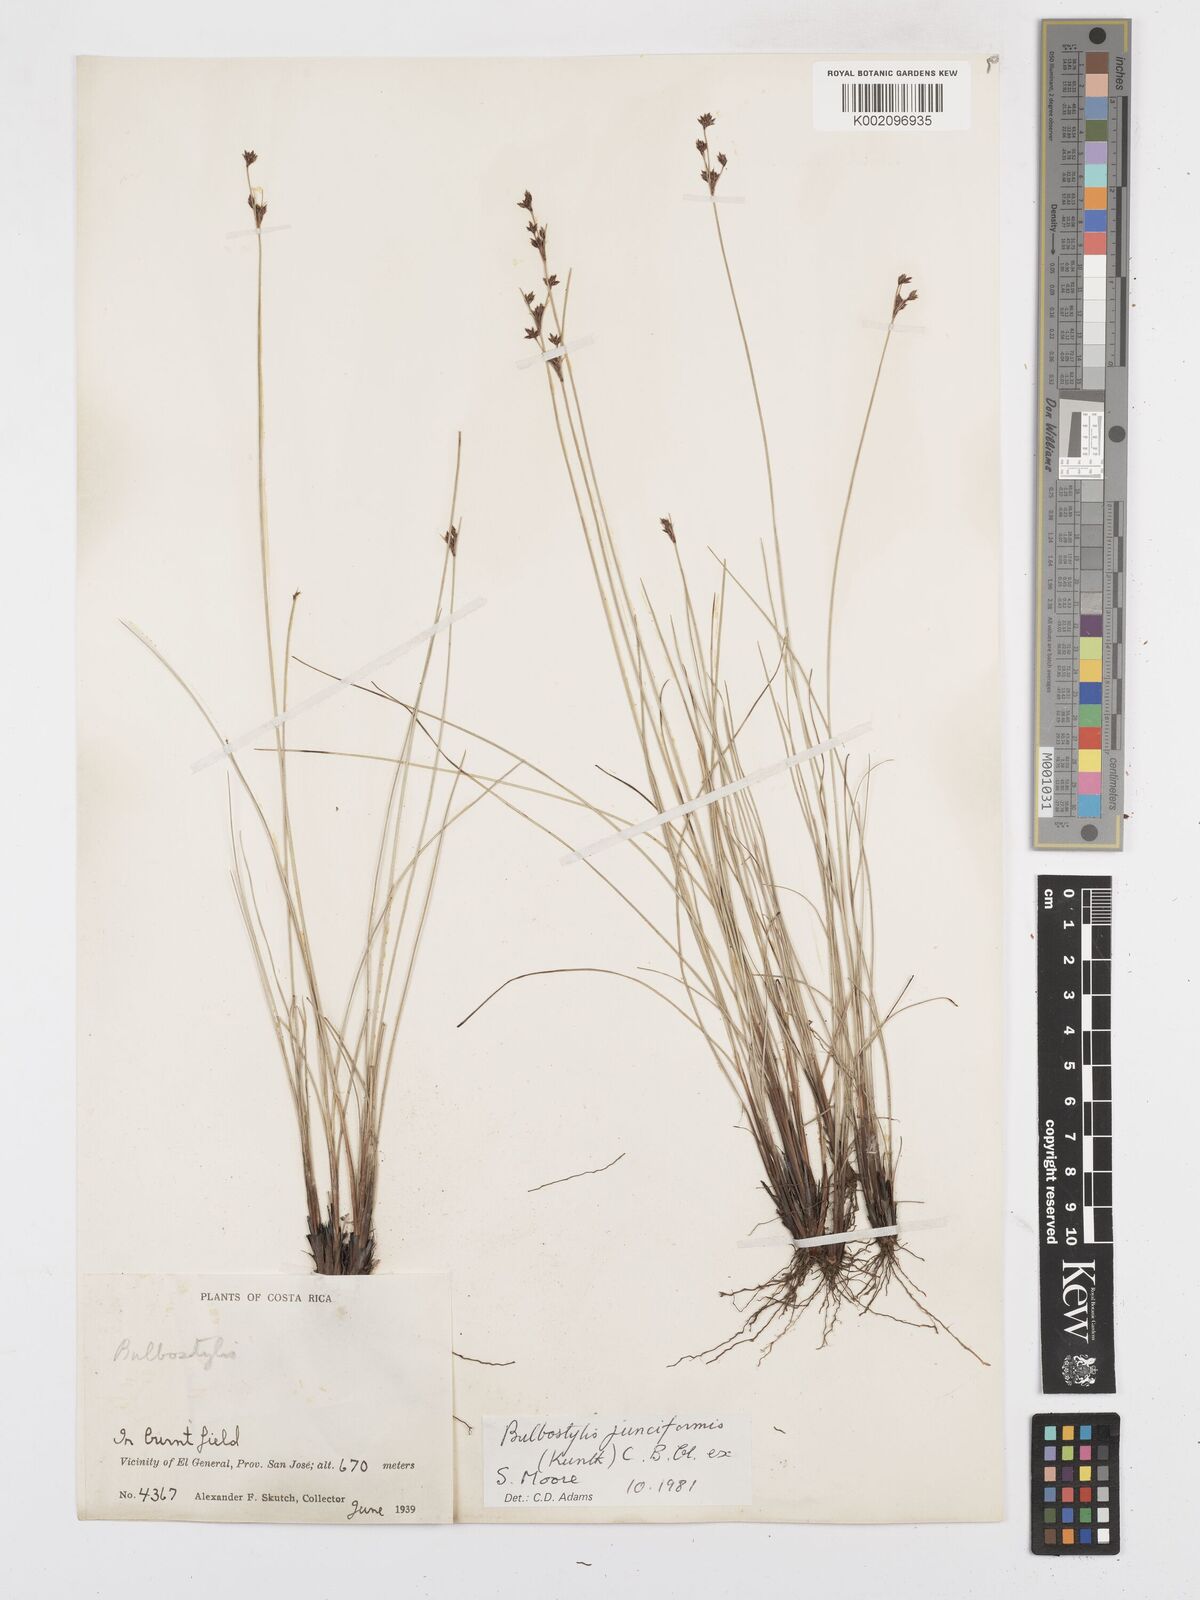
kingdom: Plantae
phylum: Tracheophyta
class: Liliopsida
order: Poales
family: Cyperaceae
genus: Bulbostylis
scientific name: Bulbostylis junciformis
